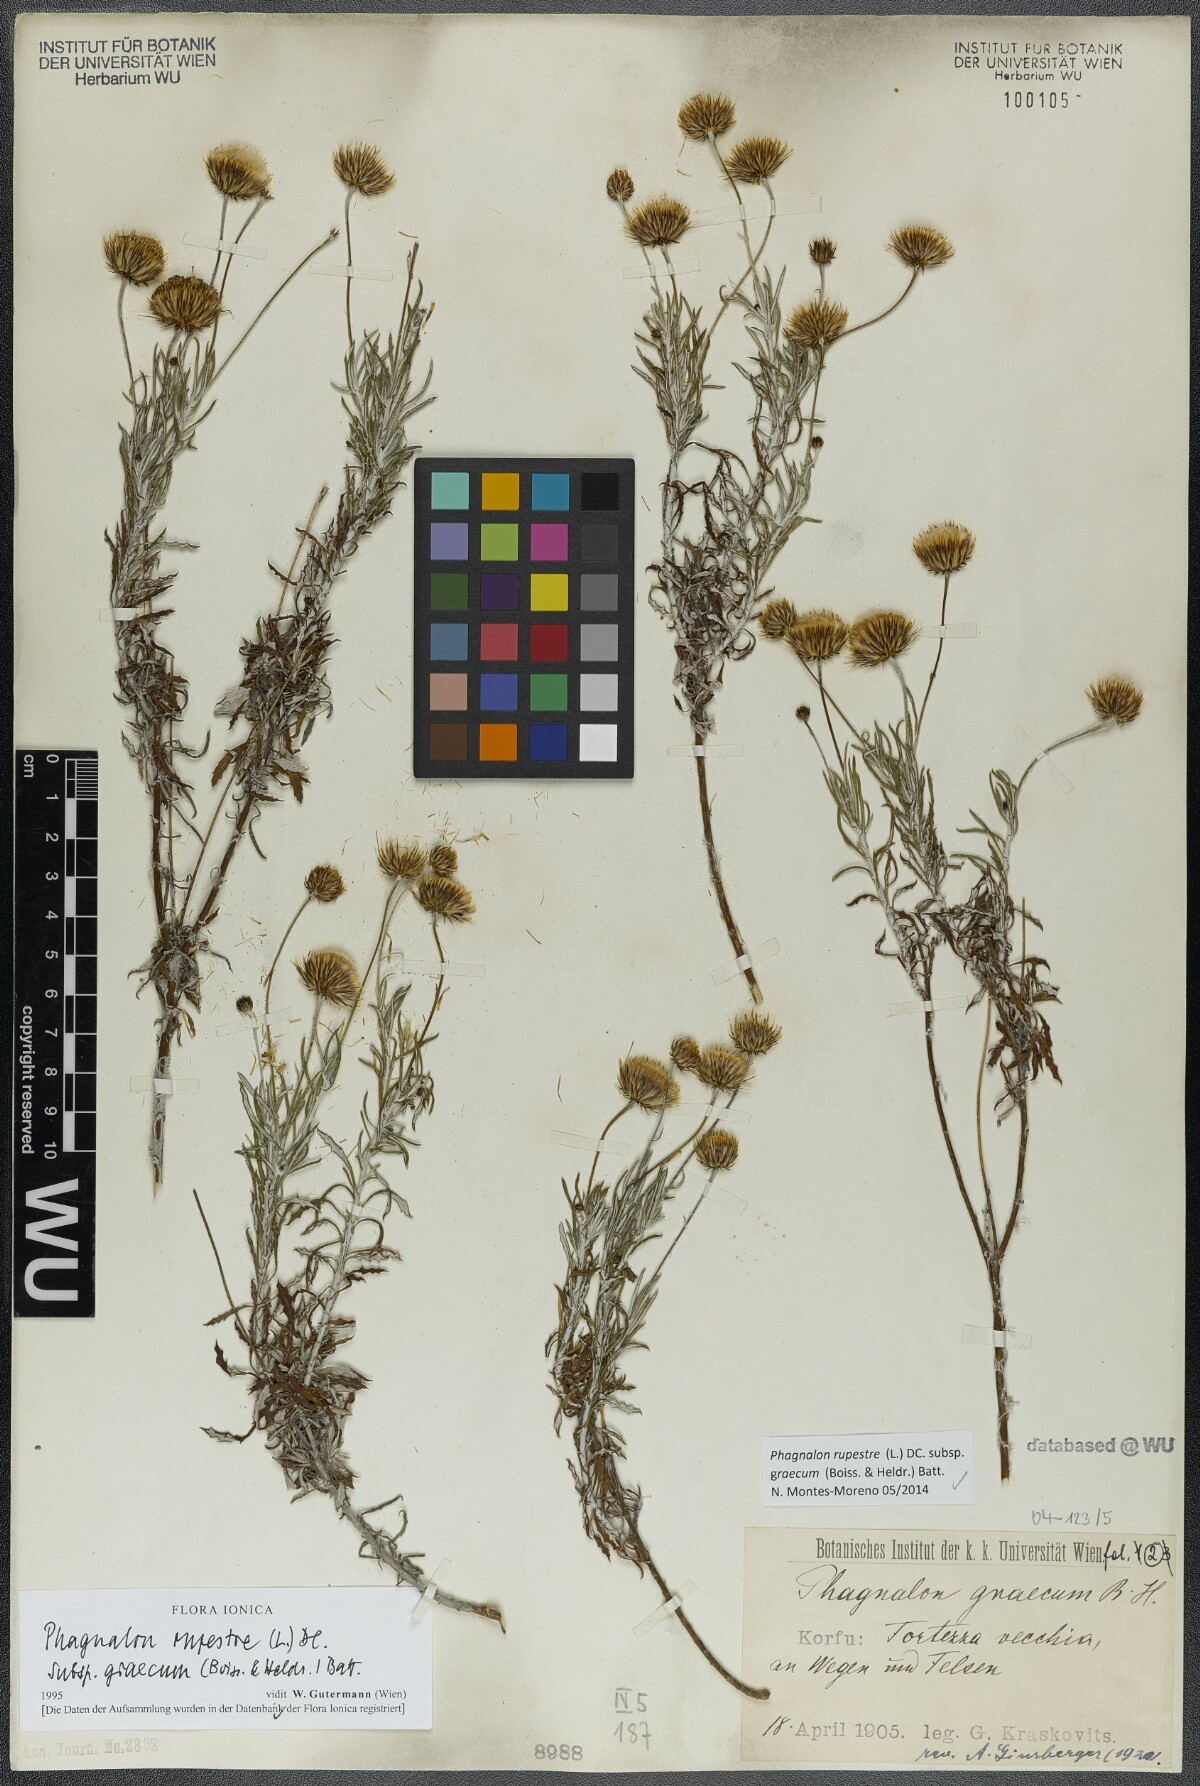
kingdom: Plantae
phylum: Tracheophyta
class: Magnoliopsida
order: Asterales
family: Asteraceae
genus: Phagnalon
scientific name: Phagnalon graecum
